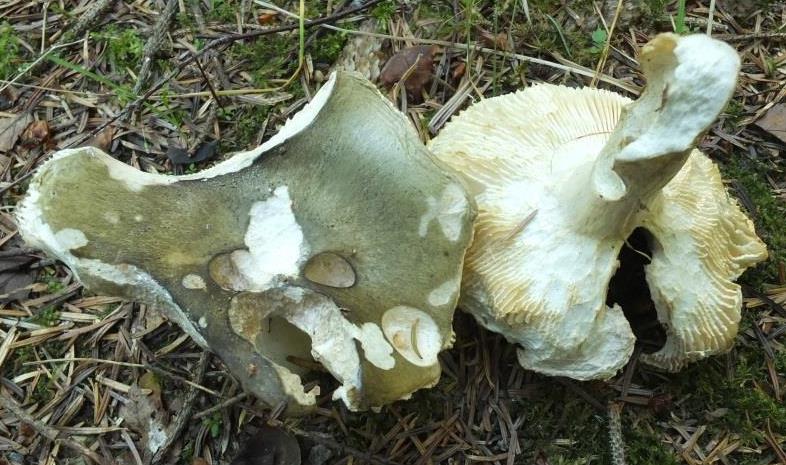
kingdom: Fungi
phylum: Basidiomycota
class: Agaricomycetes
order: Russulales
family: Russulaceae
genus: Russula
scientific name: Russula aeruginea
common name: græsgrøn skørhat
